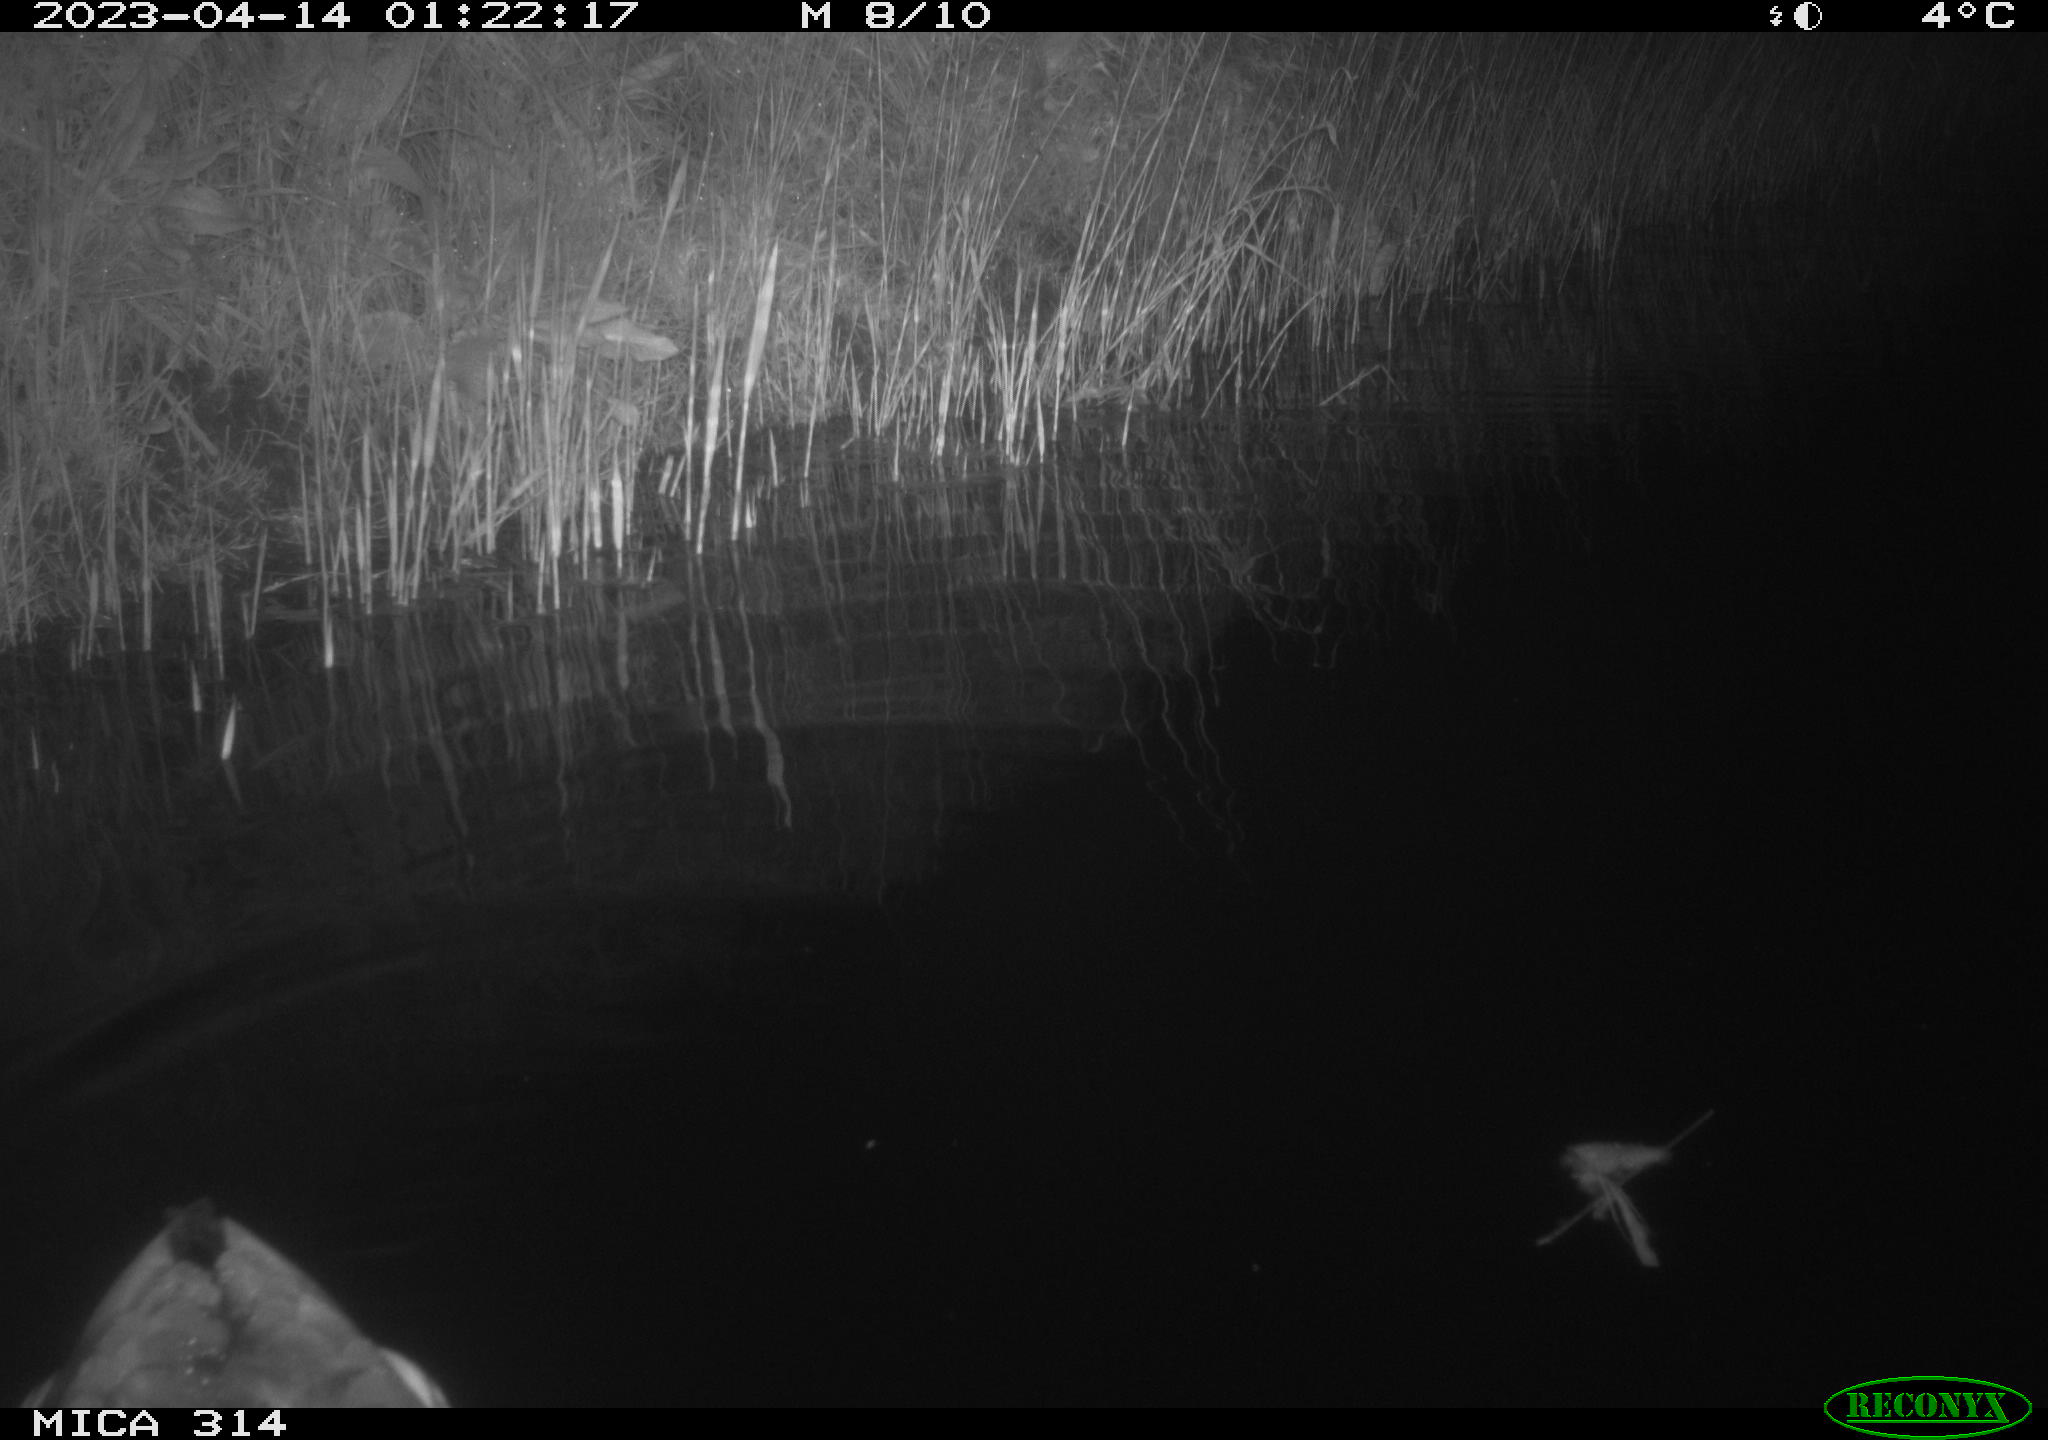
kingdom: Animalia
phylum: Chordata
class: Aves
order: Anseriformes
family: Anatidae
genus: Anas
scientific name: Anas
